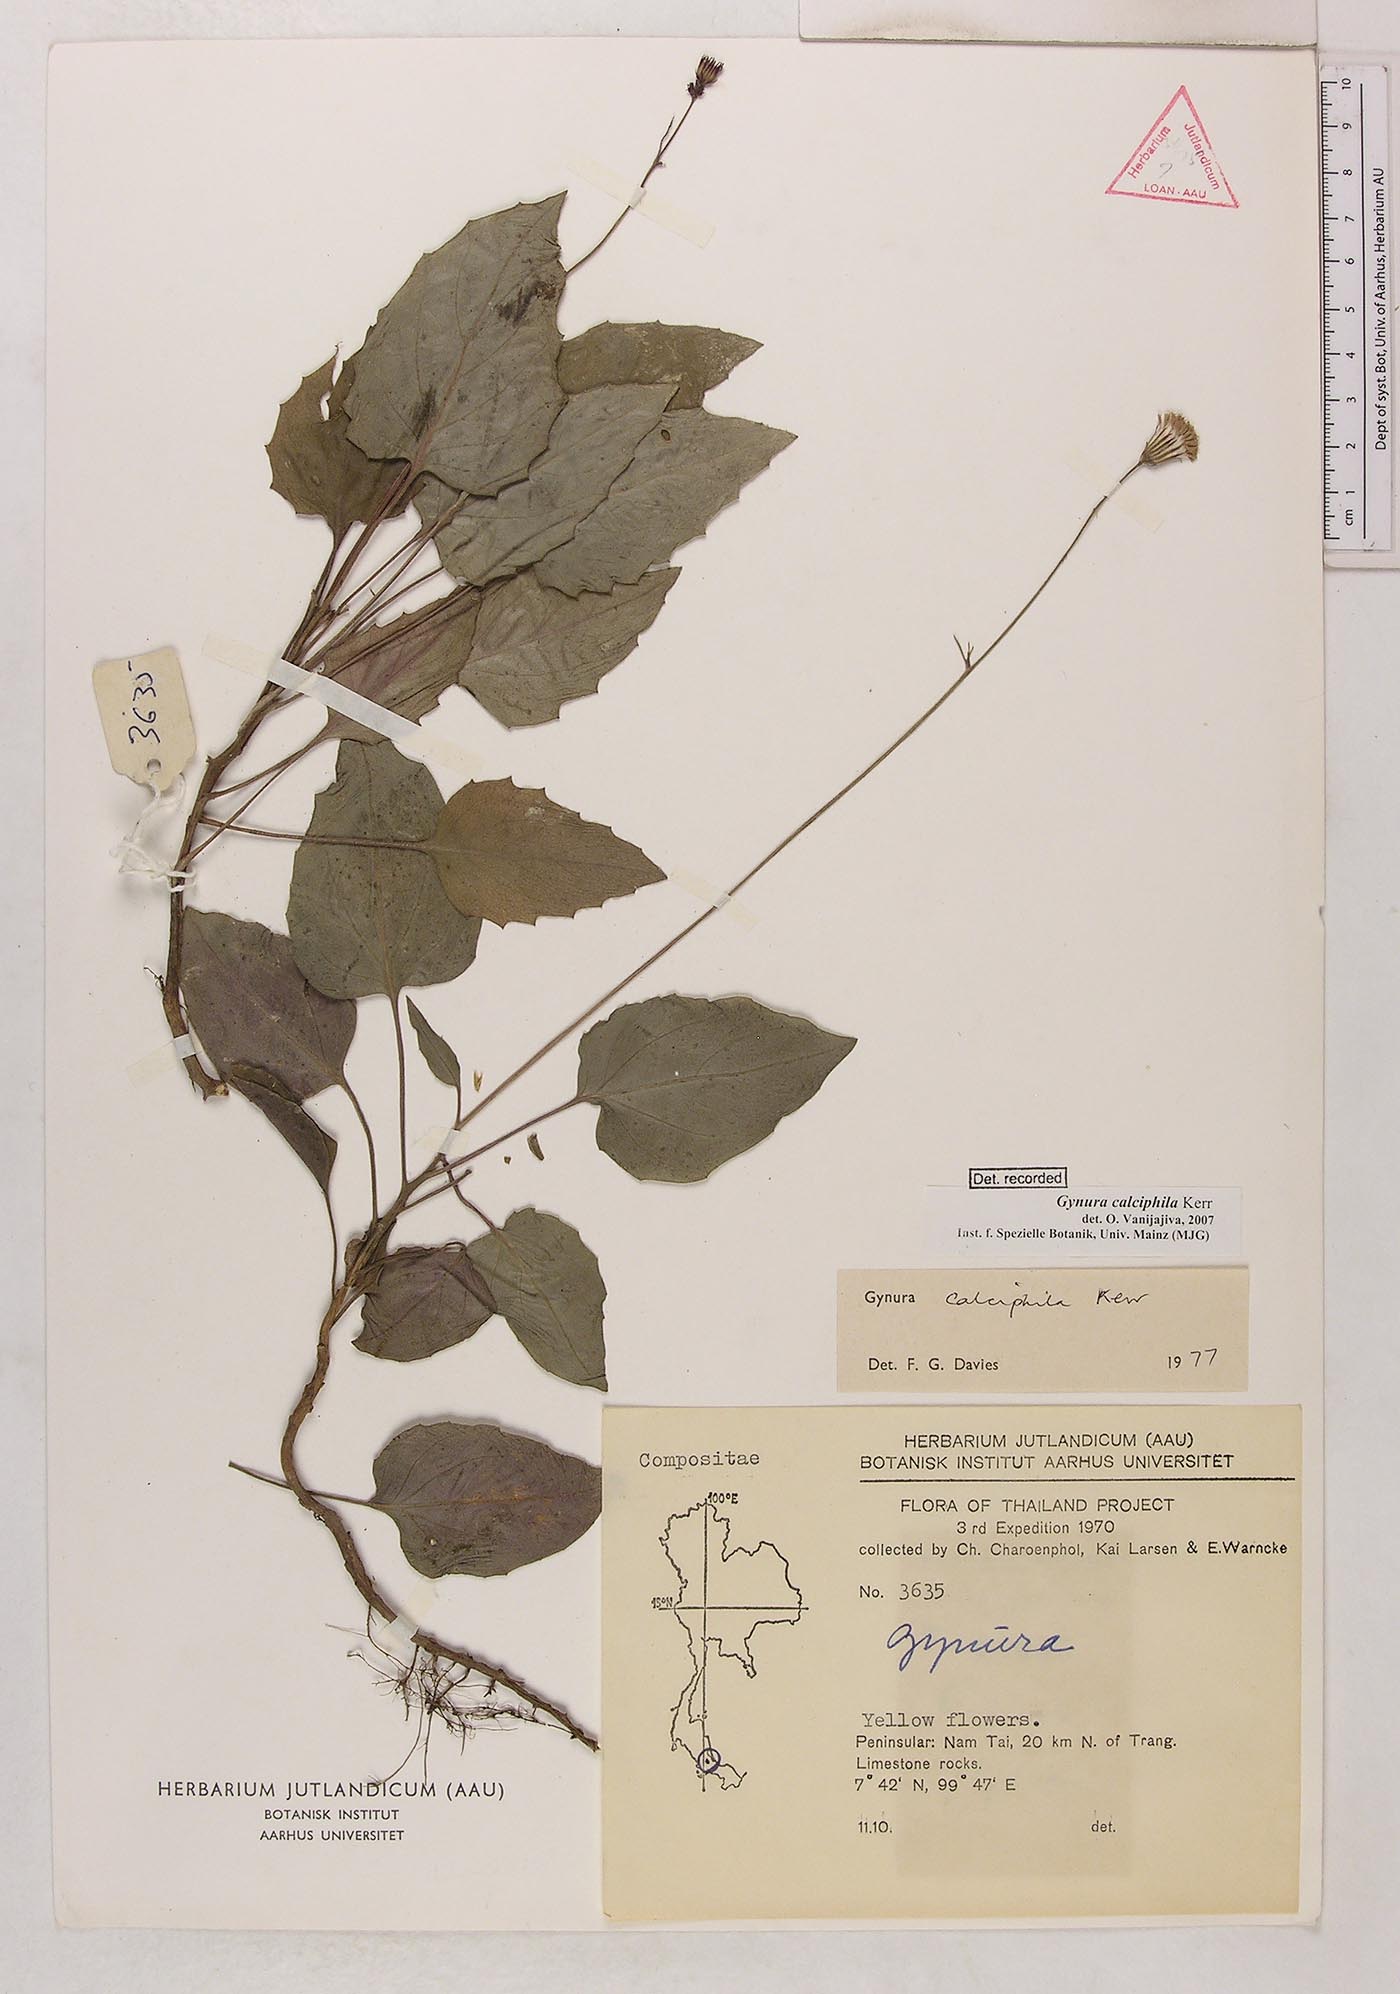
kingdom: Plantae
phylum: Tracheophyta
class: Magnoliopsida
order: Asterales
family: Asteraceae
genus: Gynura
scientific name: Gynura calciphila
